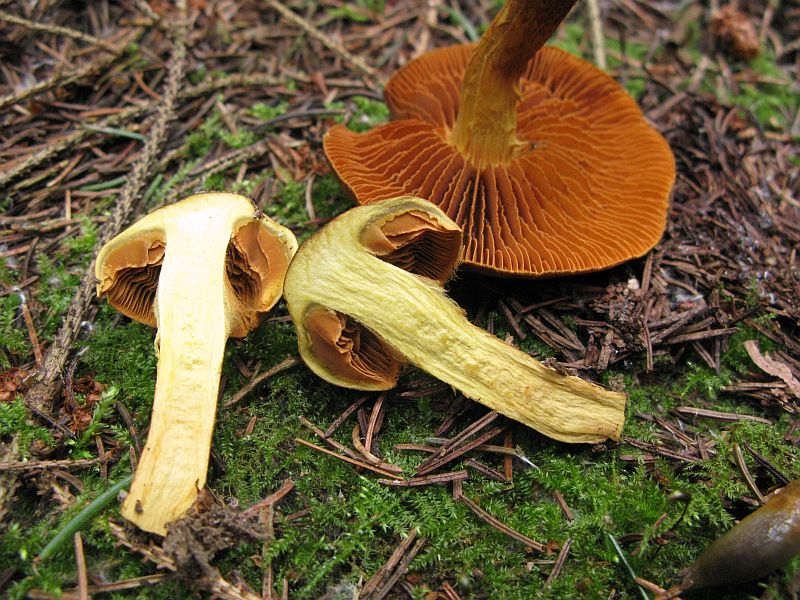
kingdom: Fungi
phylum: Basidiomycota
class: Agaricomycetes
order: Agaricales
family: Cortinariaceae
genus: Cortinarius
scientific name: Cortinarius malicorius
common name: grønkødet slørhat
